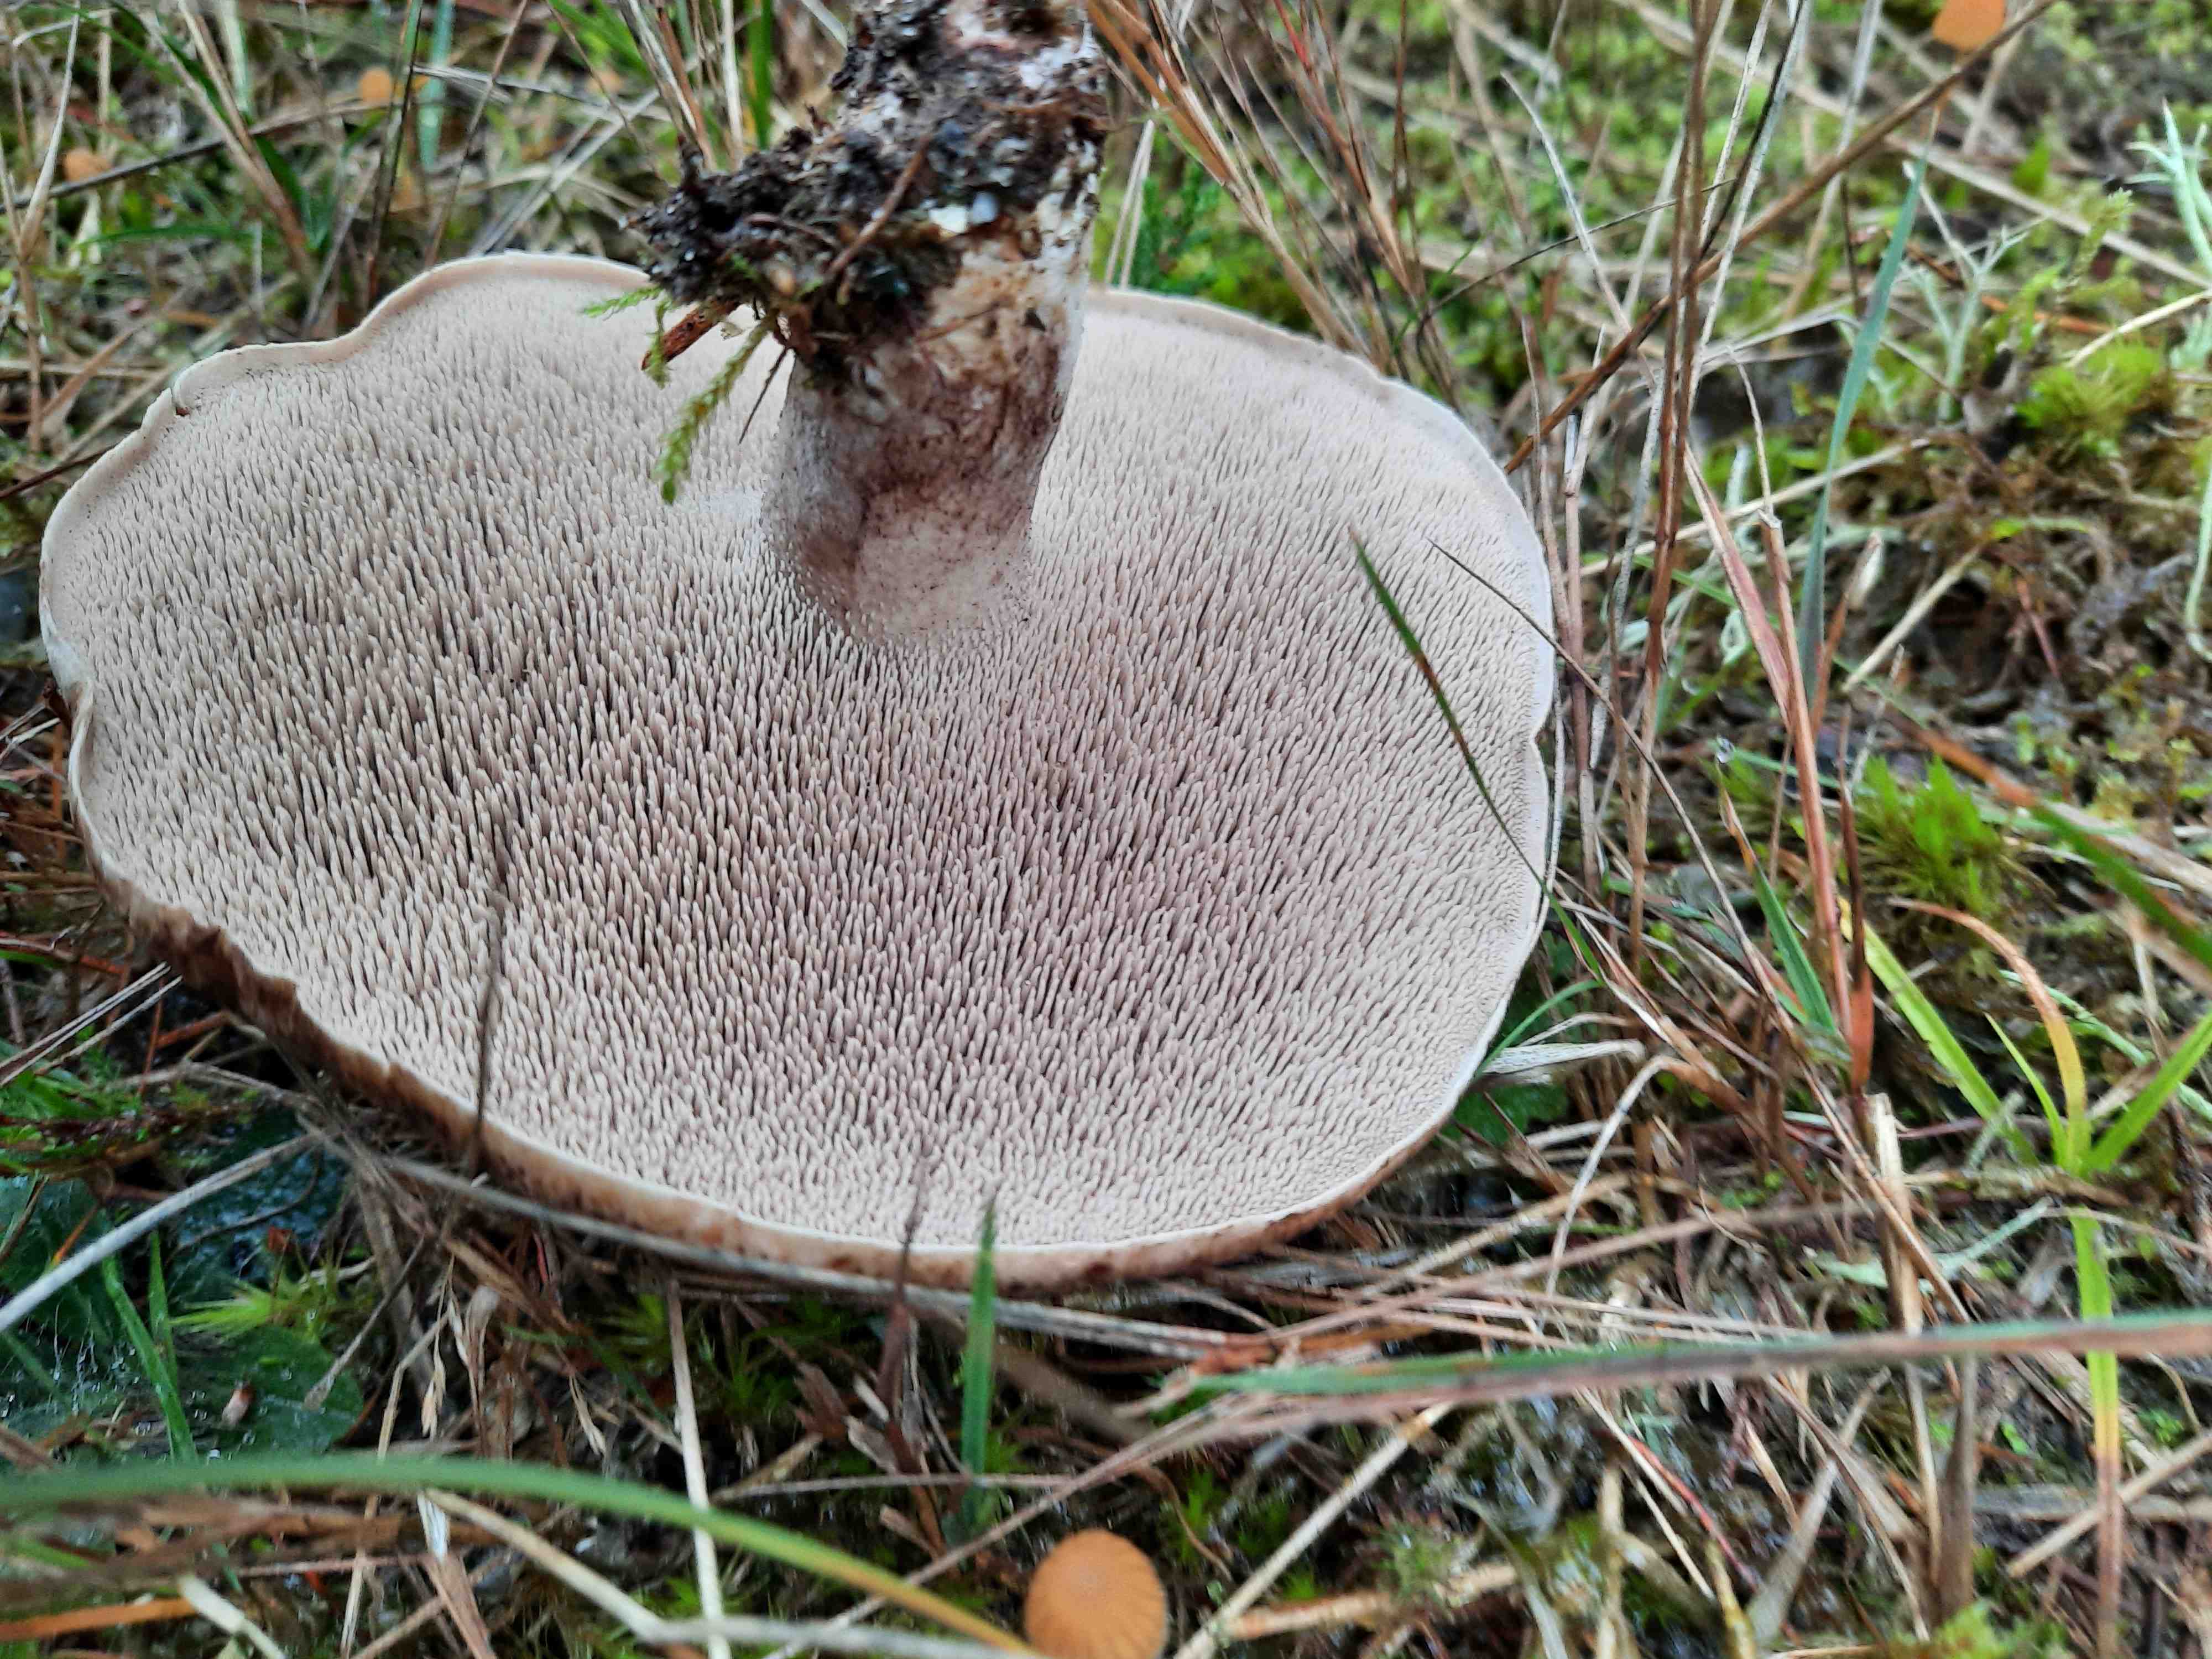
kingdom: Fungi
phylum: Basidiomycota
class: Agaricomycetes
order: Thelephorales
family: Bankeraceae
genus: Sarcodon
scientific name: Sarcodon squamosus
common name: småskællet kødpigsvamp
